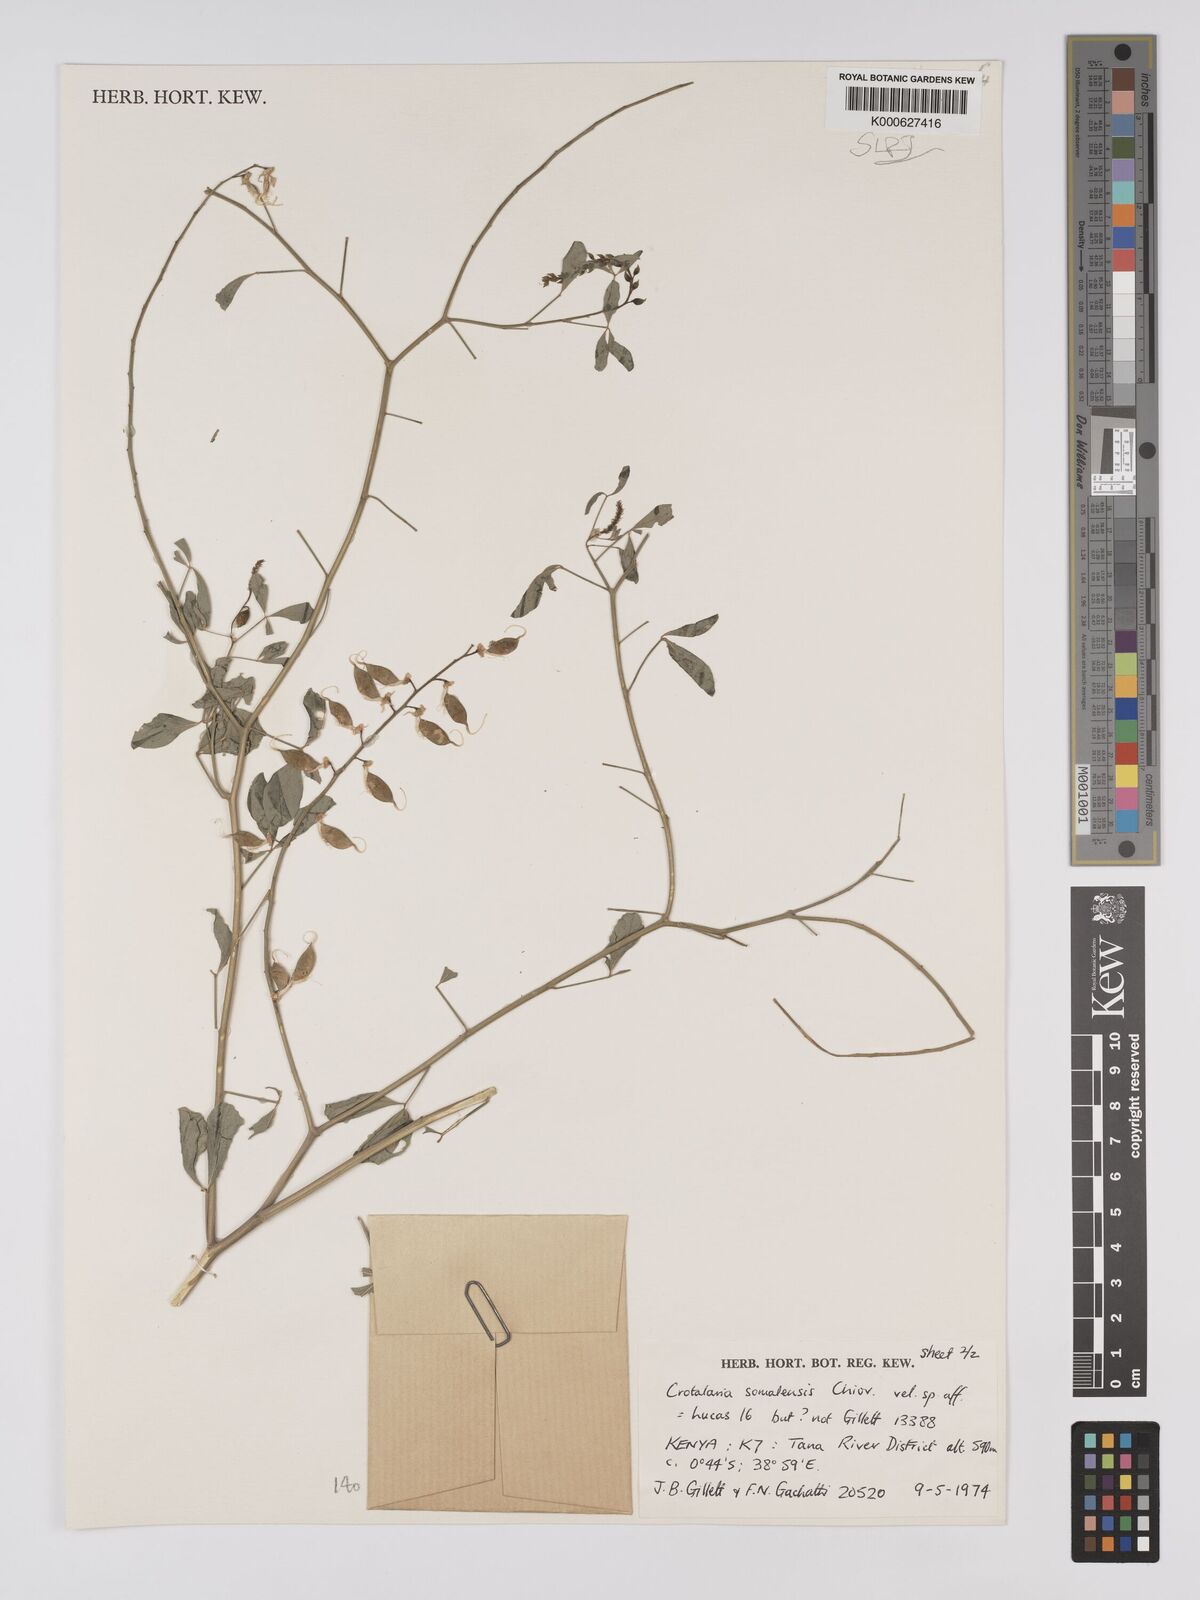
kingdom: Plantae
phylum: Tracheophyta
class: Magnoliopsida
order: Fabales
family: Fabaceae
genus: Crotalaria
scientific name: Crotalaria somalensis
